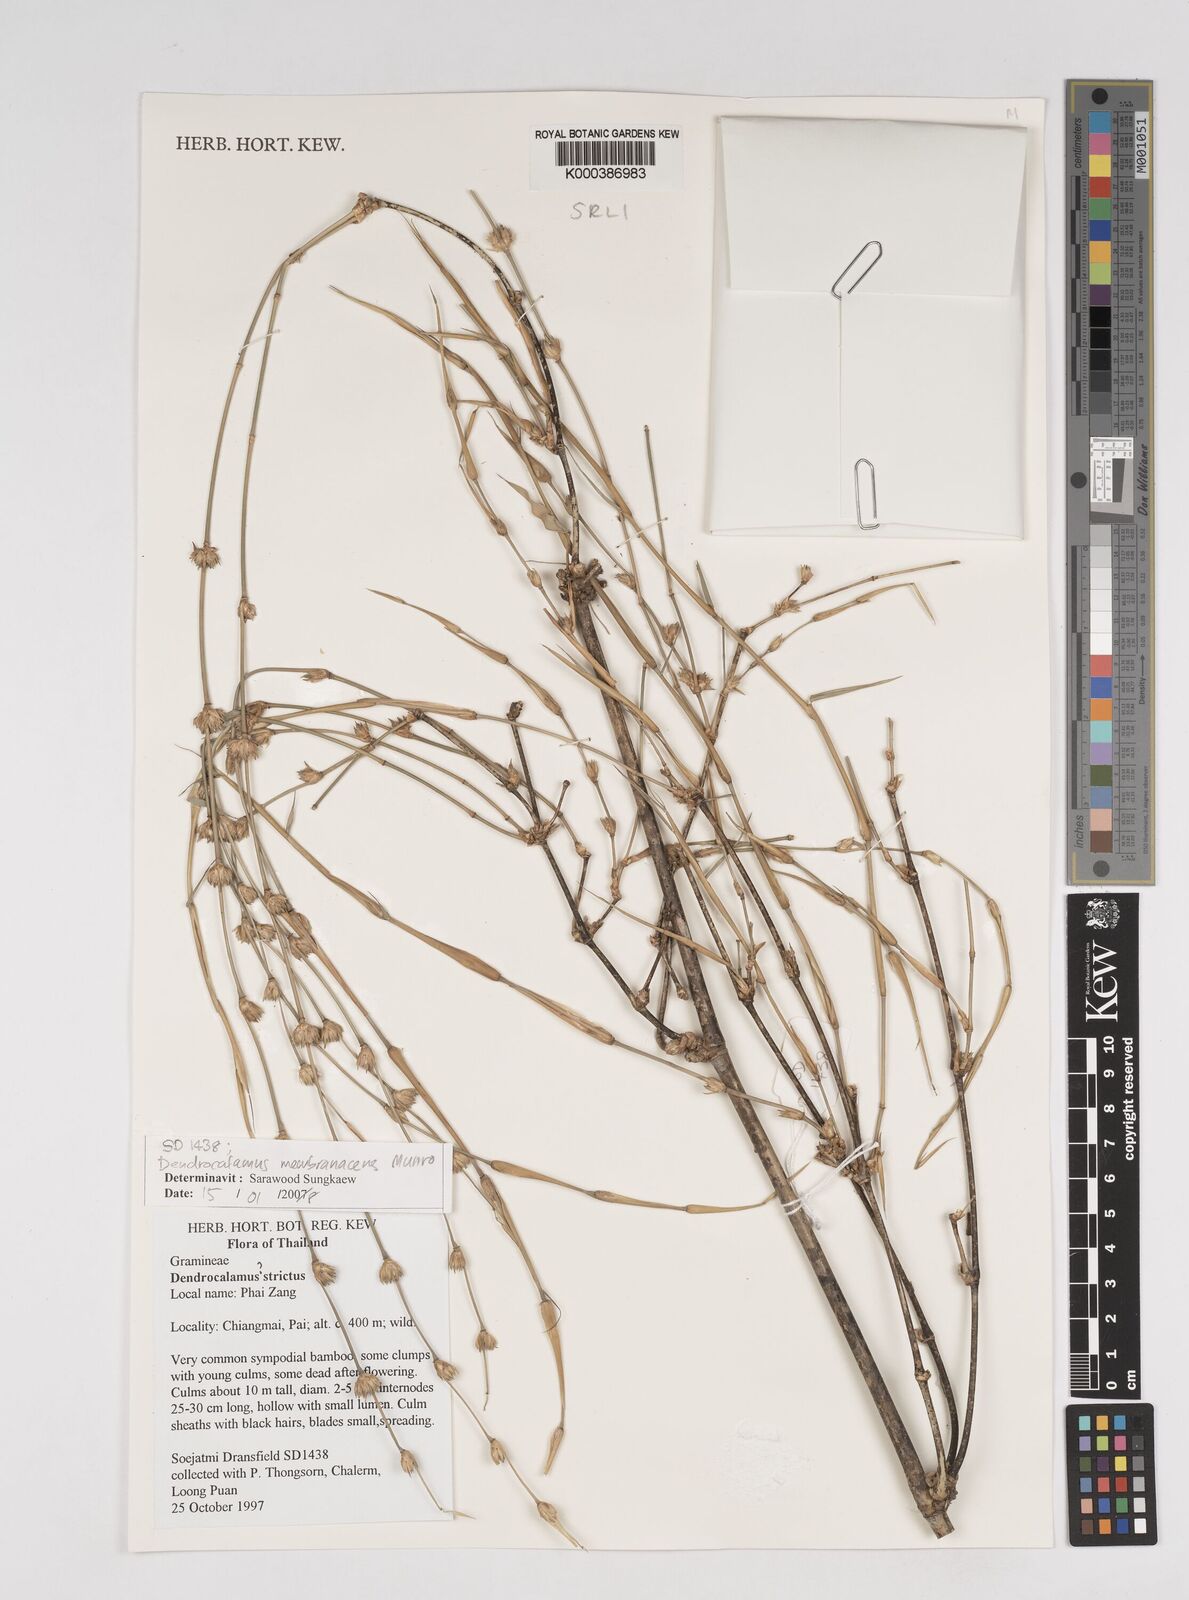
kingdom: Plantae
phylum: Tracheophyta
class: Liliopsida
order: Poales
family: Poaceae
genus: Dendrocalamus
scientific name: Dendrocalamus membranaceus
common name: White bamboo
